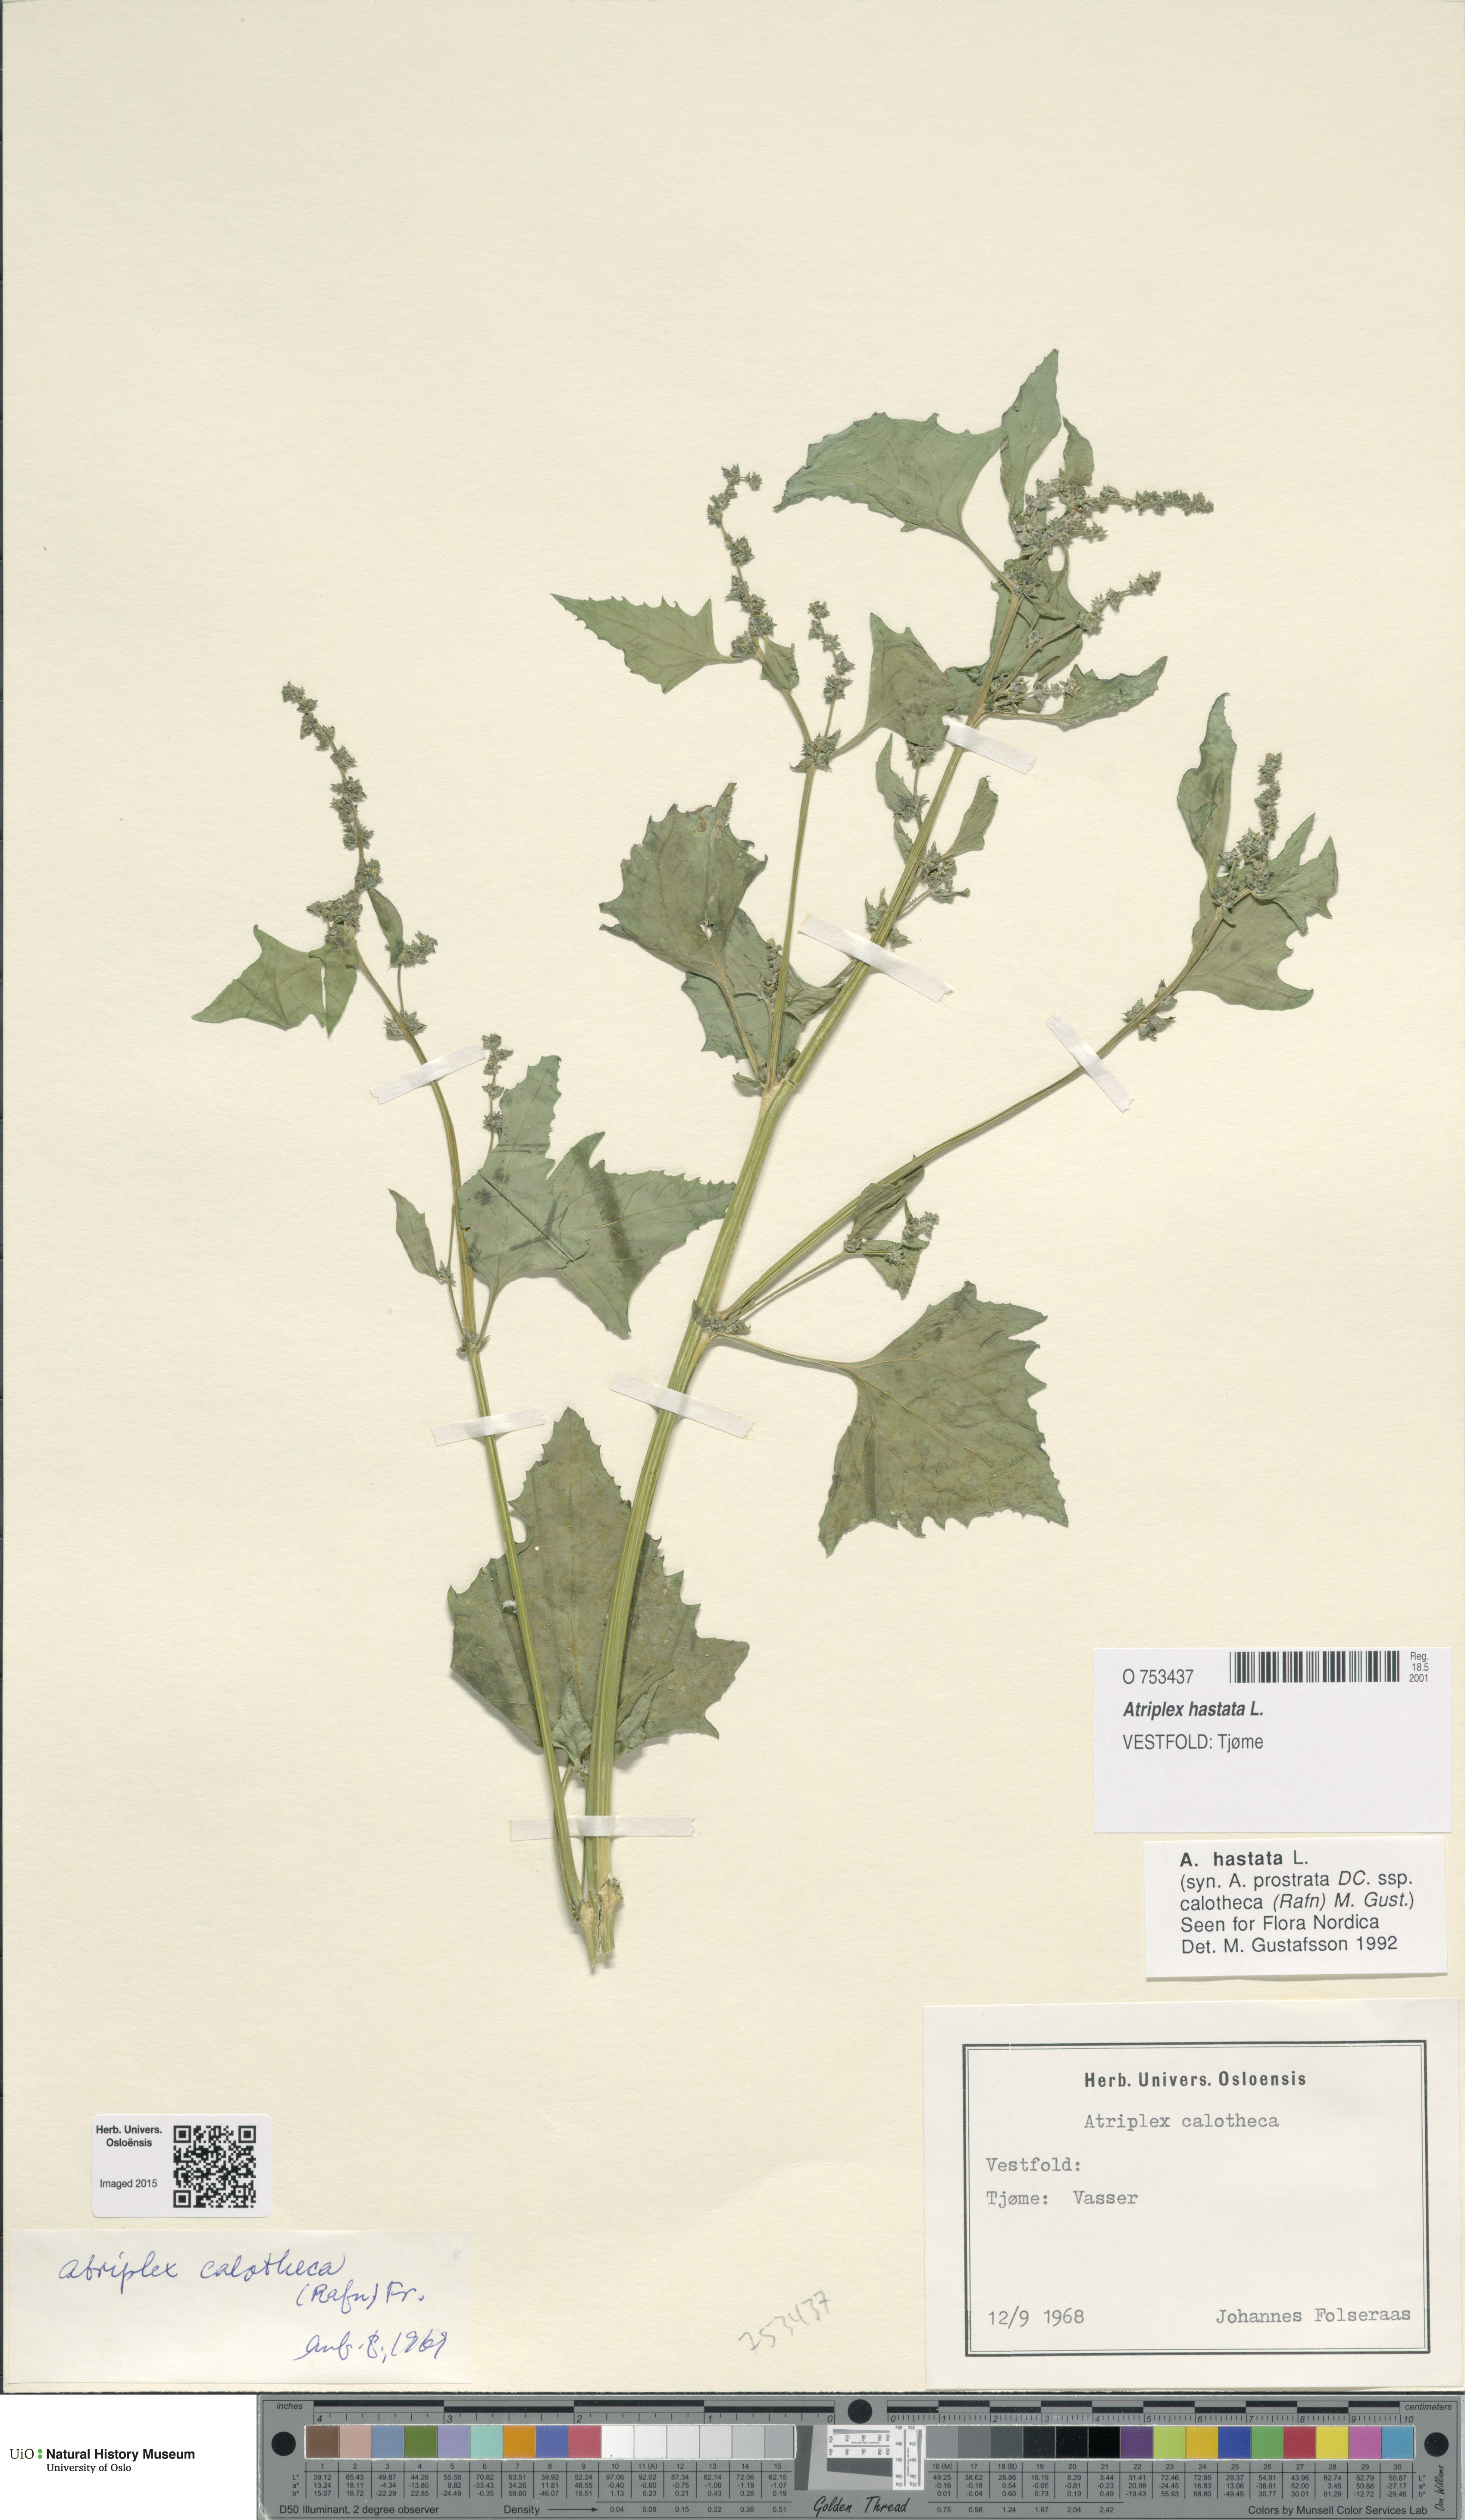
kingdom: Plantae
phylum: Tracheophyta
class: Magnoliopsida
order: Caryophyllales
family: Amaranthaceae
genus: Atriplex
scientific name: Atriplex prostrata
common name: Spear-leaved orache
